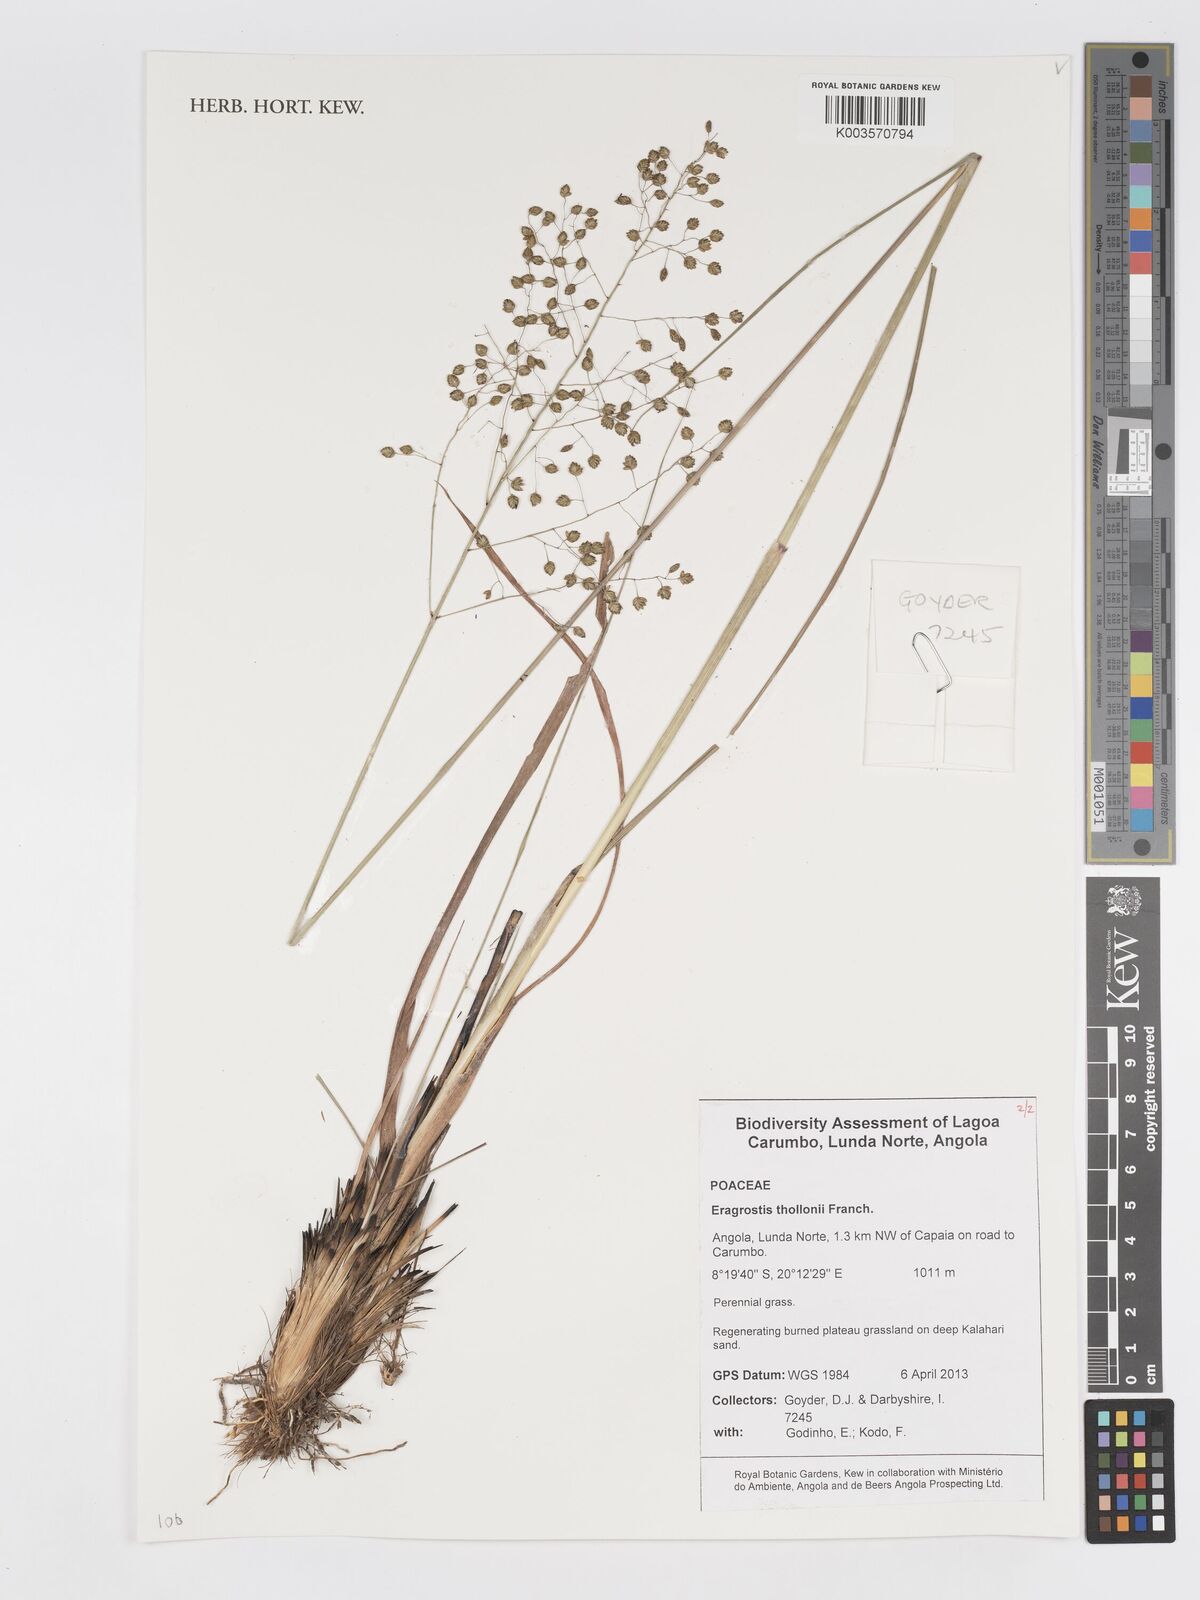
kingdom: Plantae
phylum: Tracheophyta
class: Liliopsida
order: Poales
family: Poaceae
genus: Eragrostis
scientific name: Eragrostis thollonii
